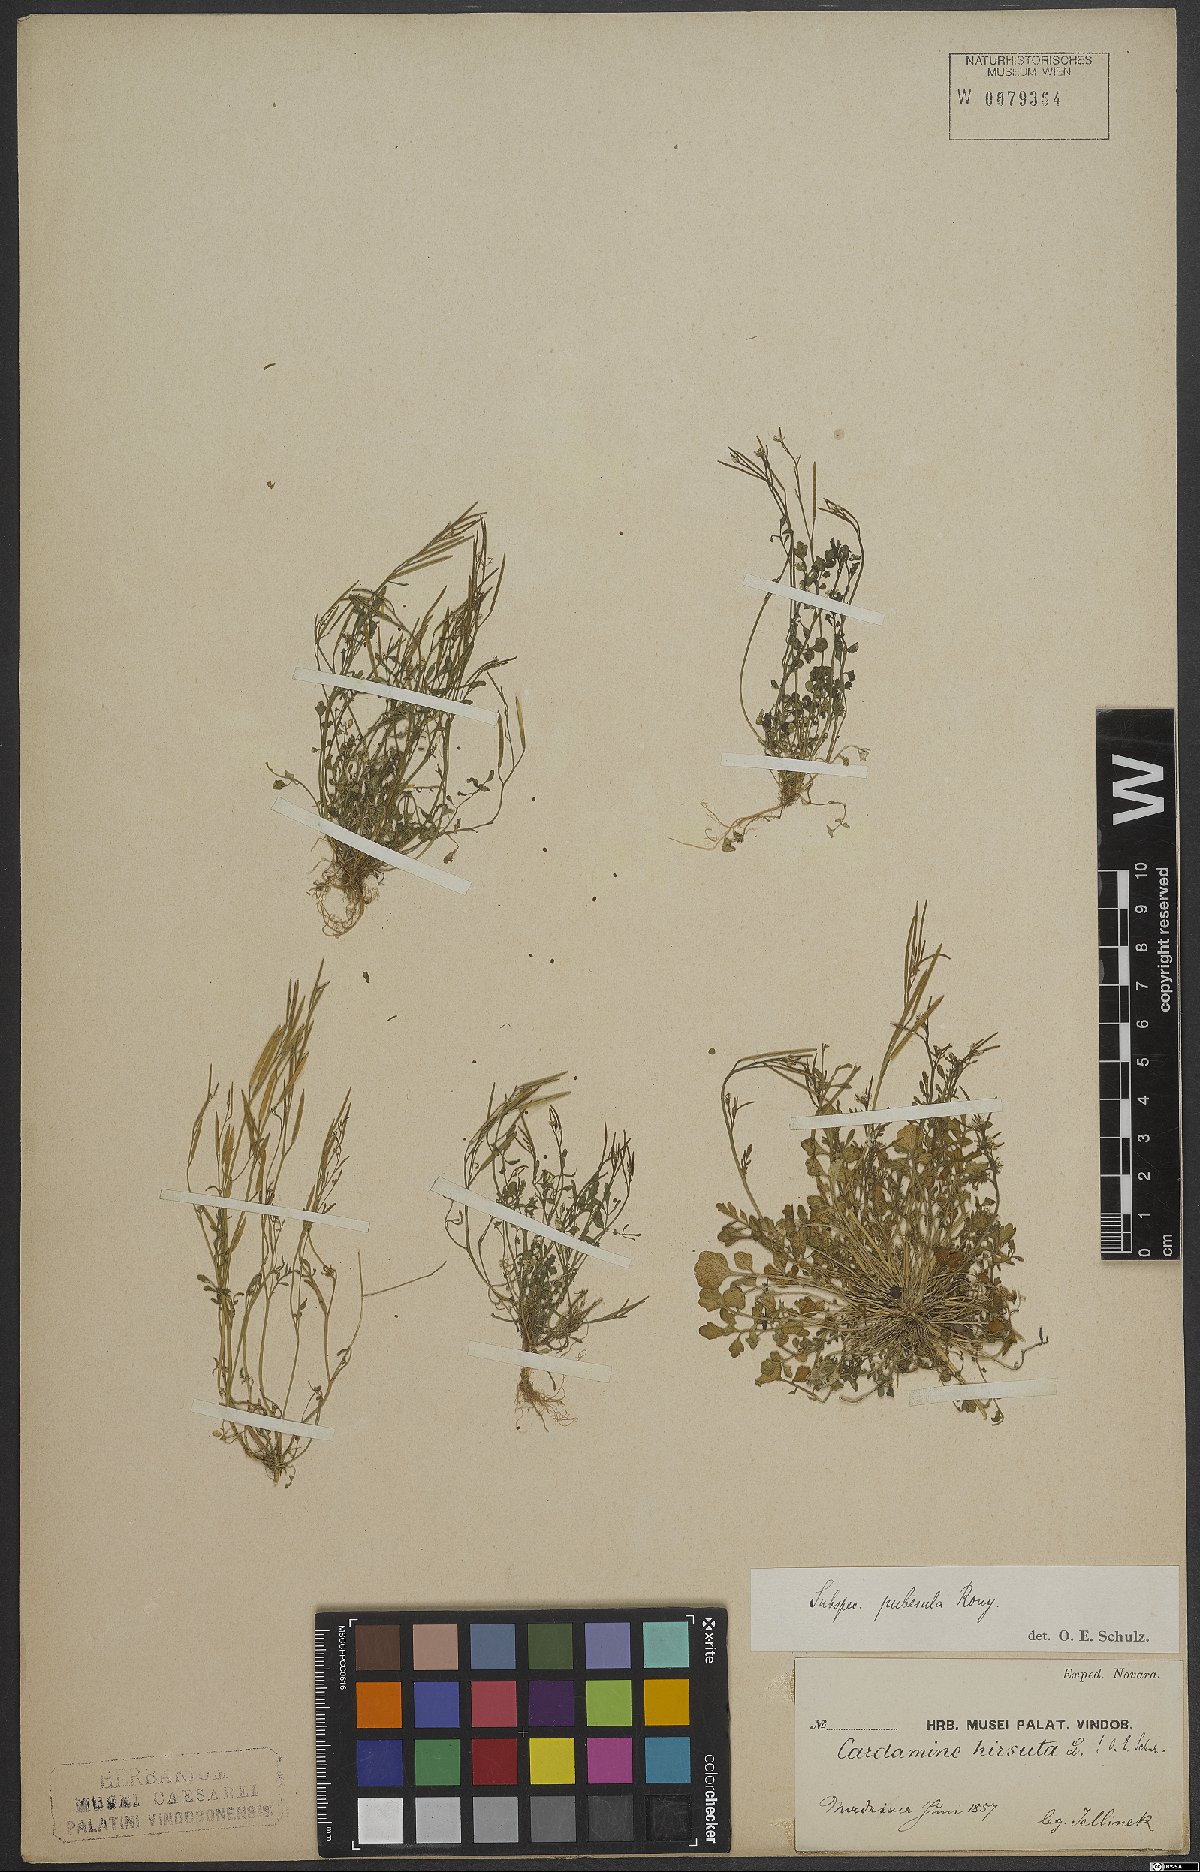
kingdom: Plantae
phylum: Tracheophyta
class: Magnoliopsida
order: Brassicales
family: Brassicaceae
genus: Cardamine
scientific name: Cardamine hirsuta
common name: Hairy bittercress
